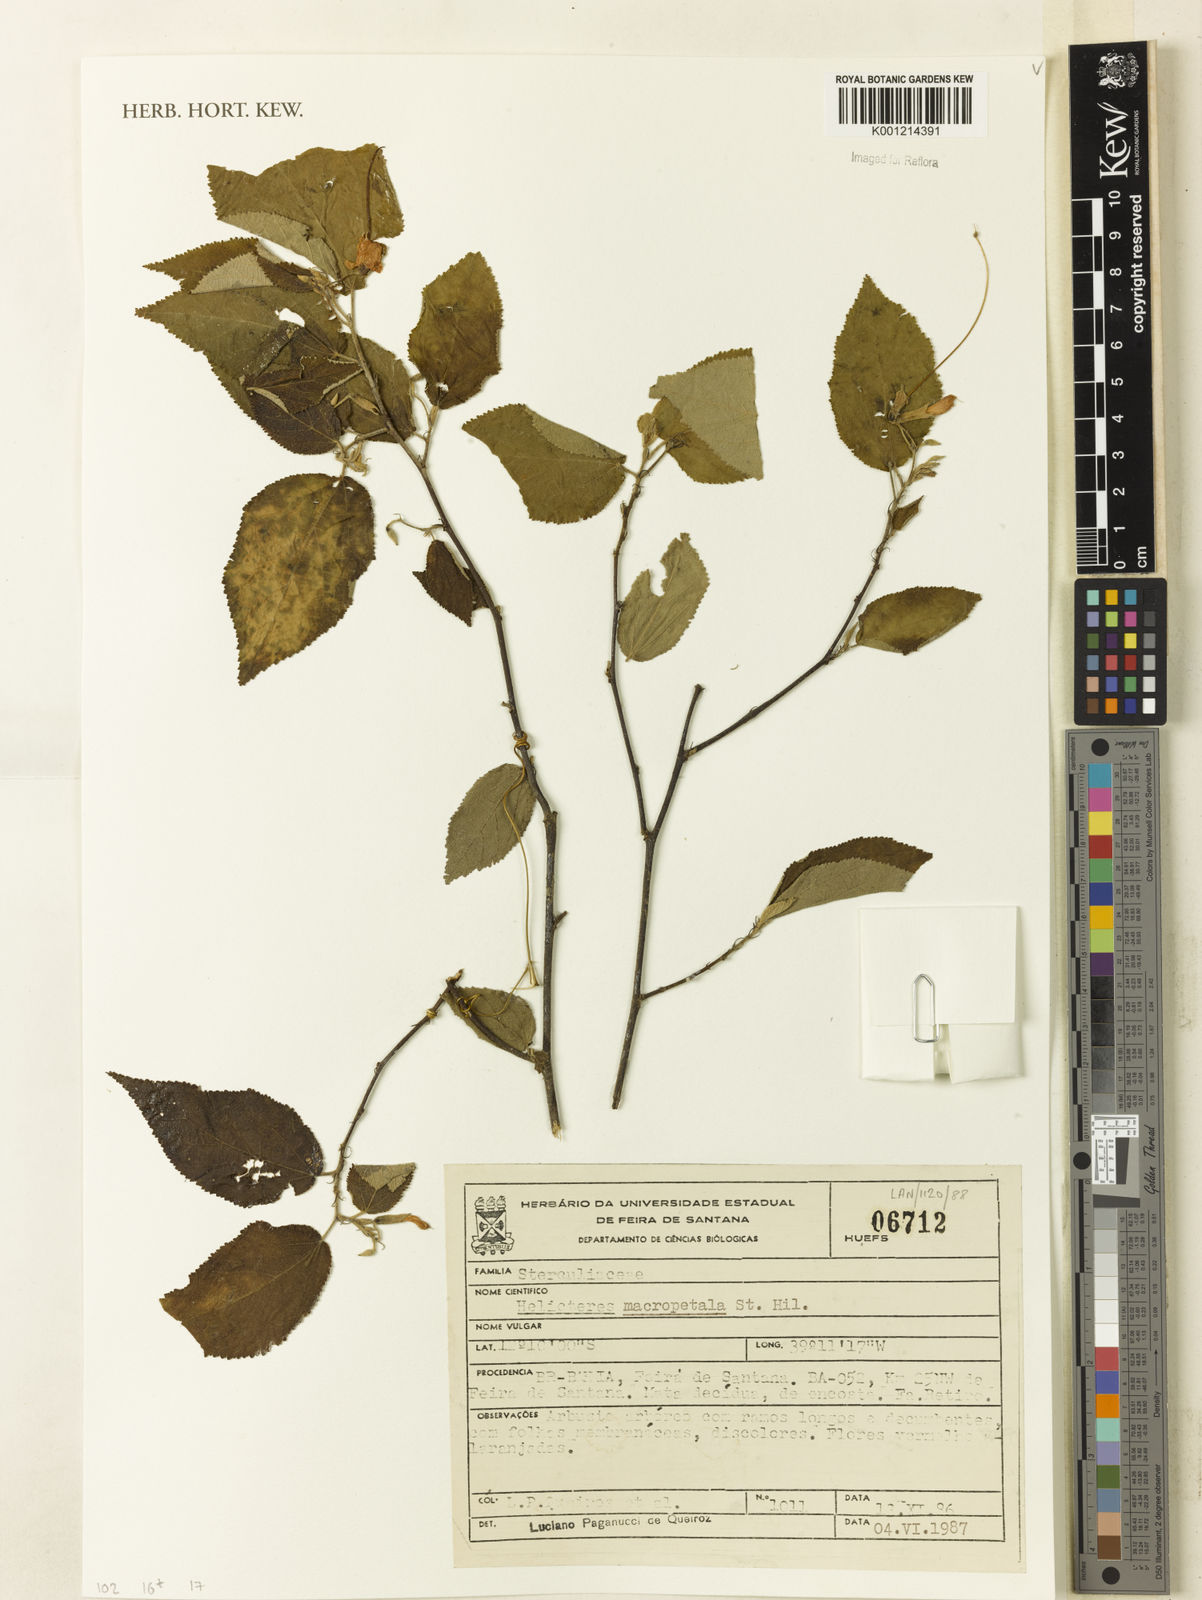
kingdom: Plantae
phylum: Tracheophyta
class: Magnoliopsida
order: Malvales
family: Malvaceae
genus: Helicteres
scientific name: Helicteres
